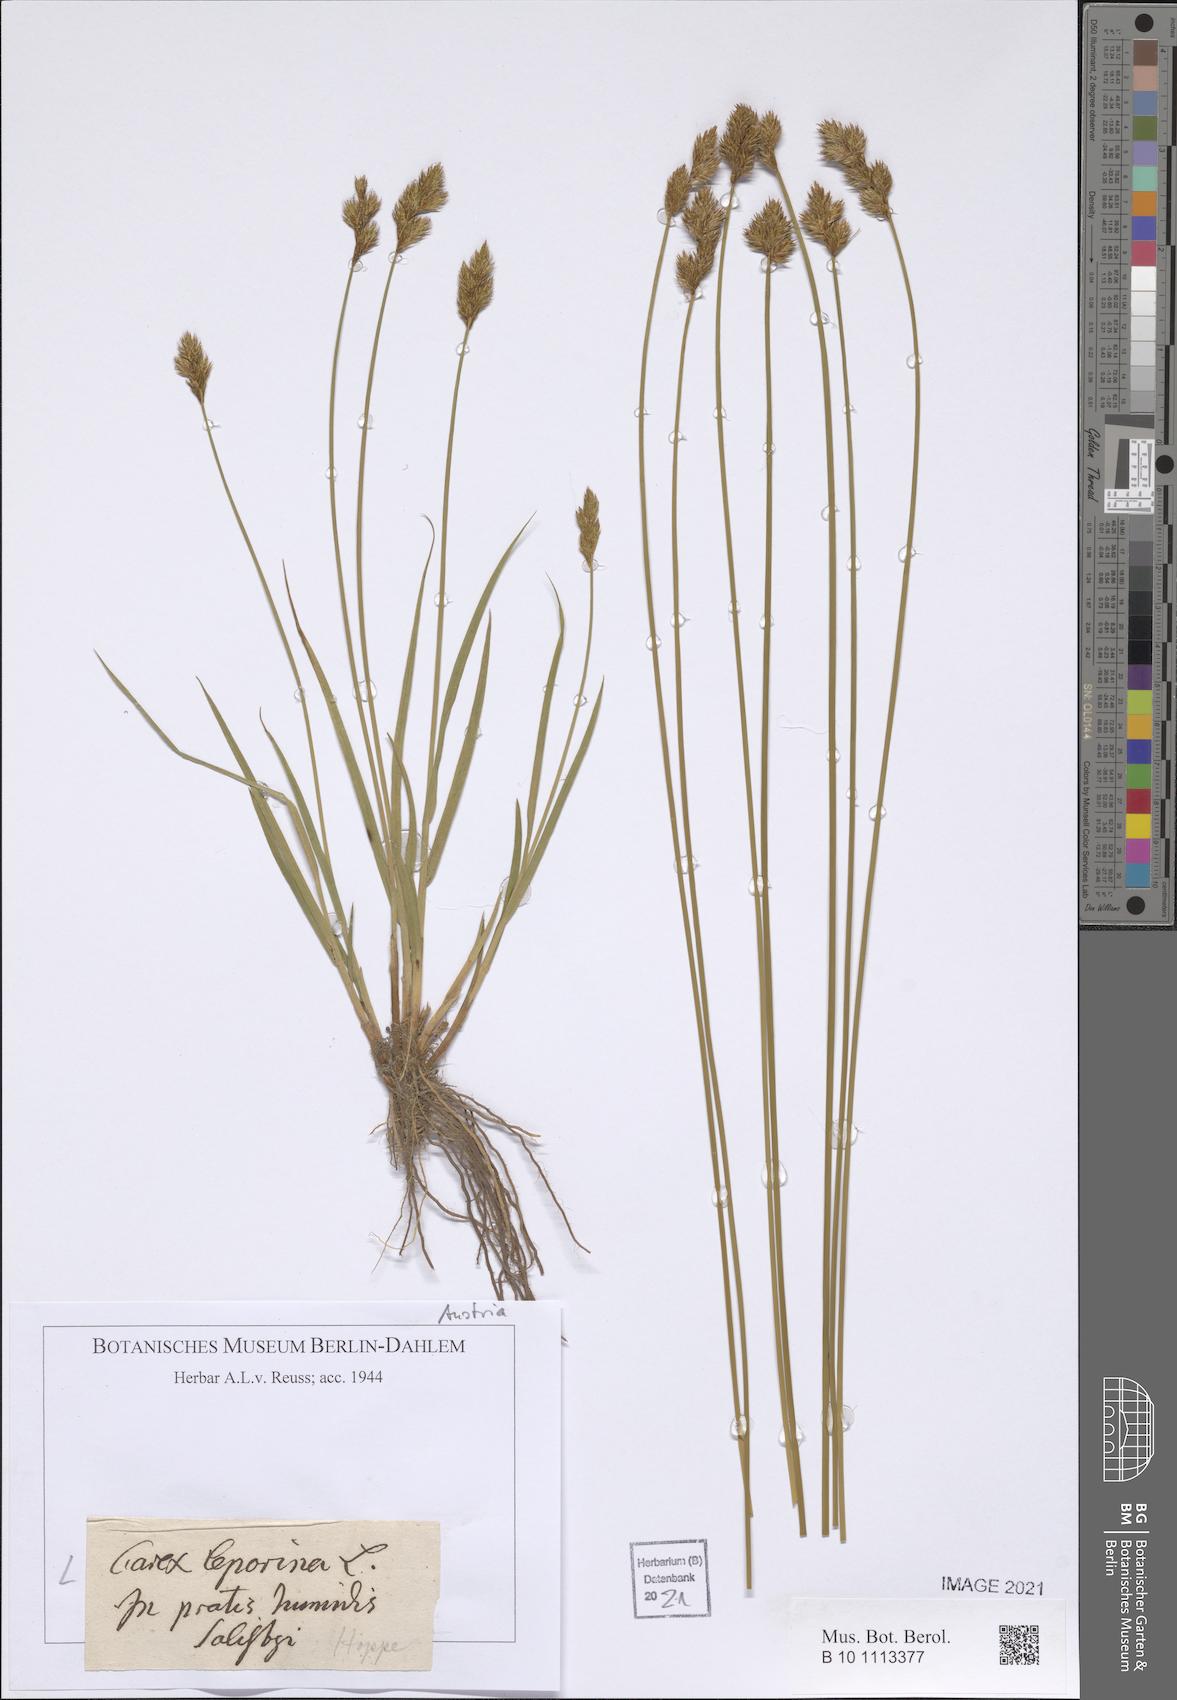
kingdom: Plantae
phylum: Tracheophyta
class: Liliopsida
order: Poales
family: Cyperaceae
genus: Carex
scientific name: Carex leporina
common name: Oval sedge
